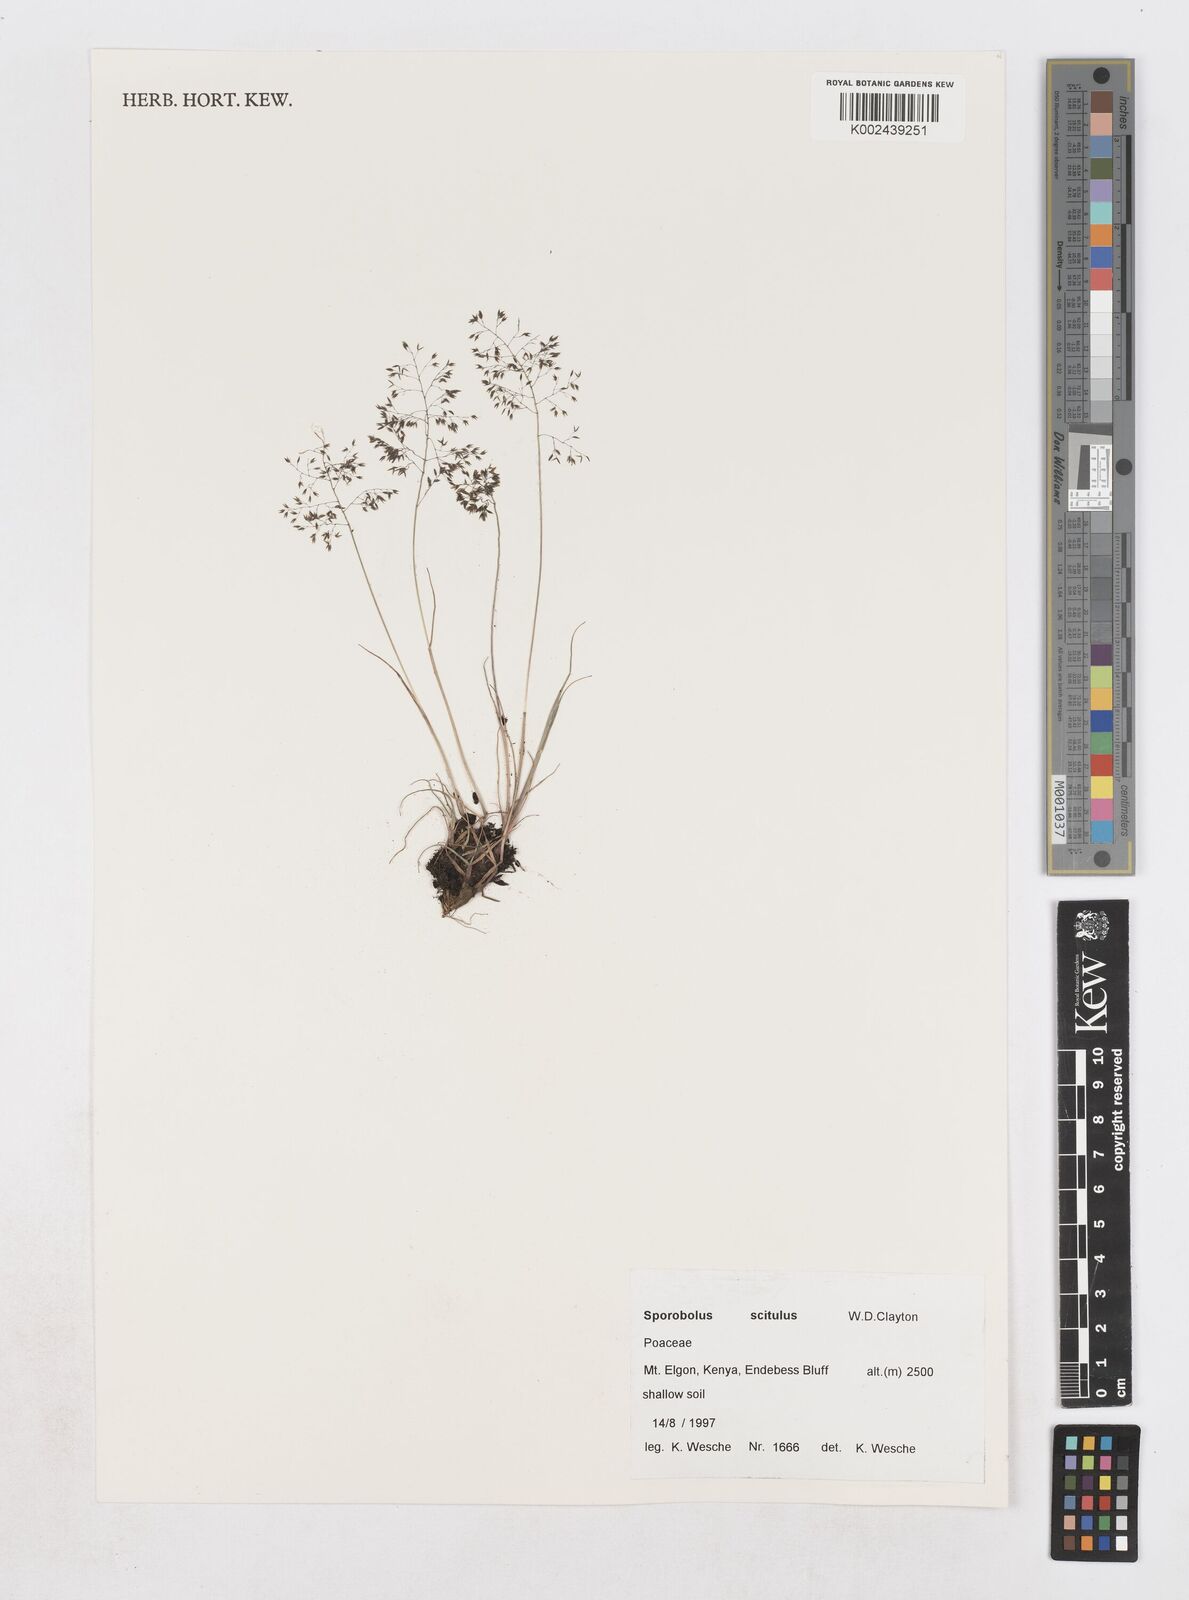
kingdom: Plantae
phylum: Tracheophyta
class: Liliopsida
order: Poales
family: Poaceae
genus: Sporobolus
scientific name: Sporobolus scitulus
